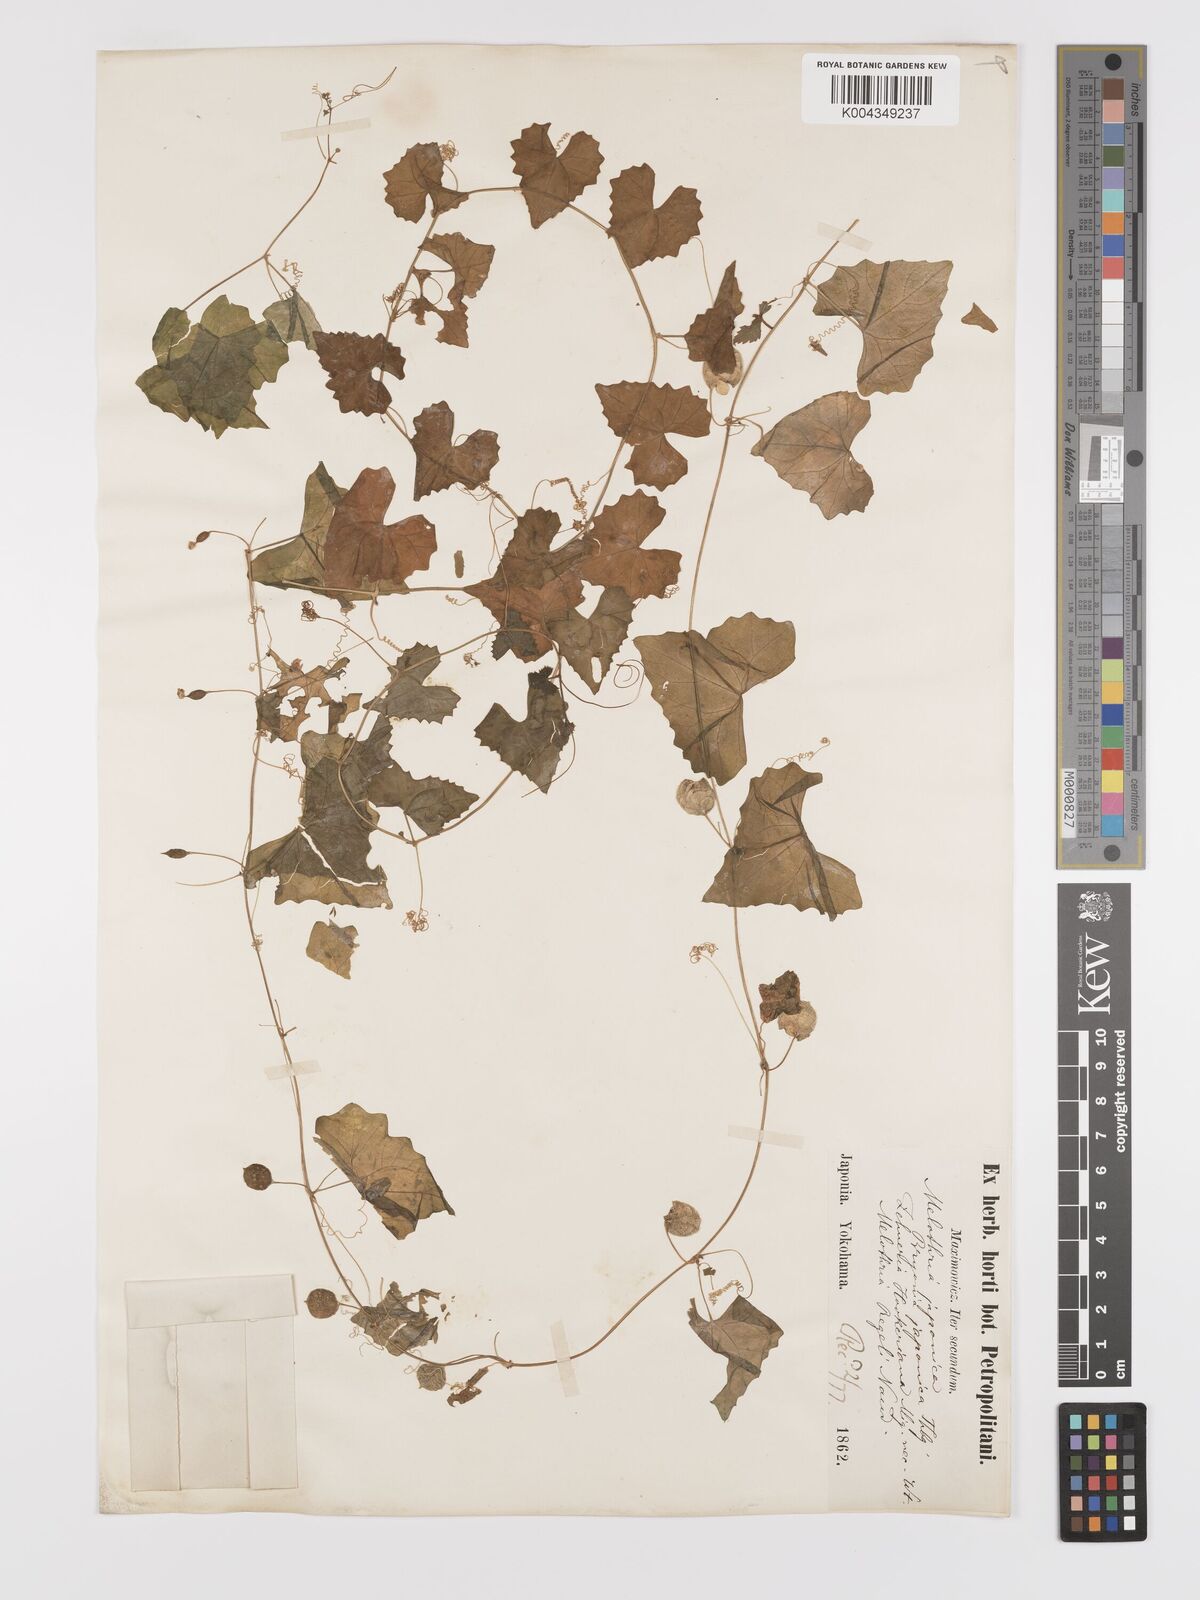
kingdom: Plantae
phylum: Tracheophyta
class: Magnoliopsida
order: Cucurbitales
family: Cucurbitaceae
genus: Zehneria
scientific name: Zehneria japonica
